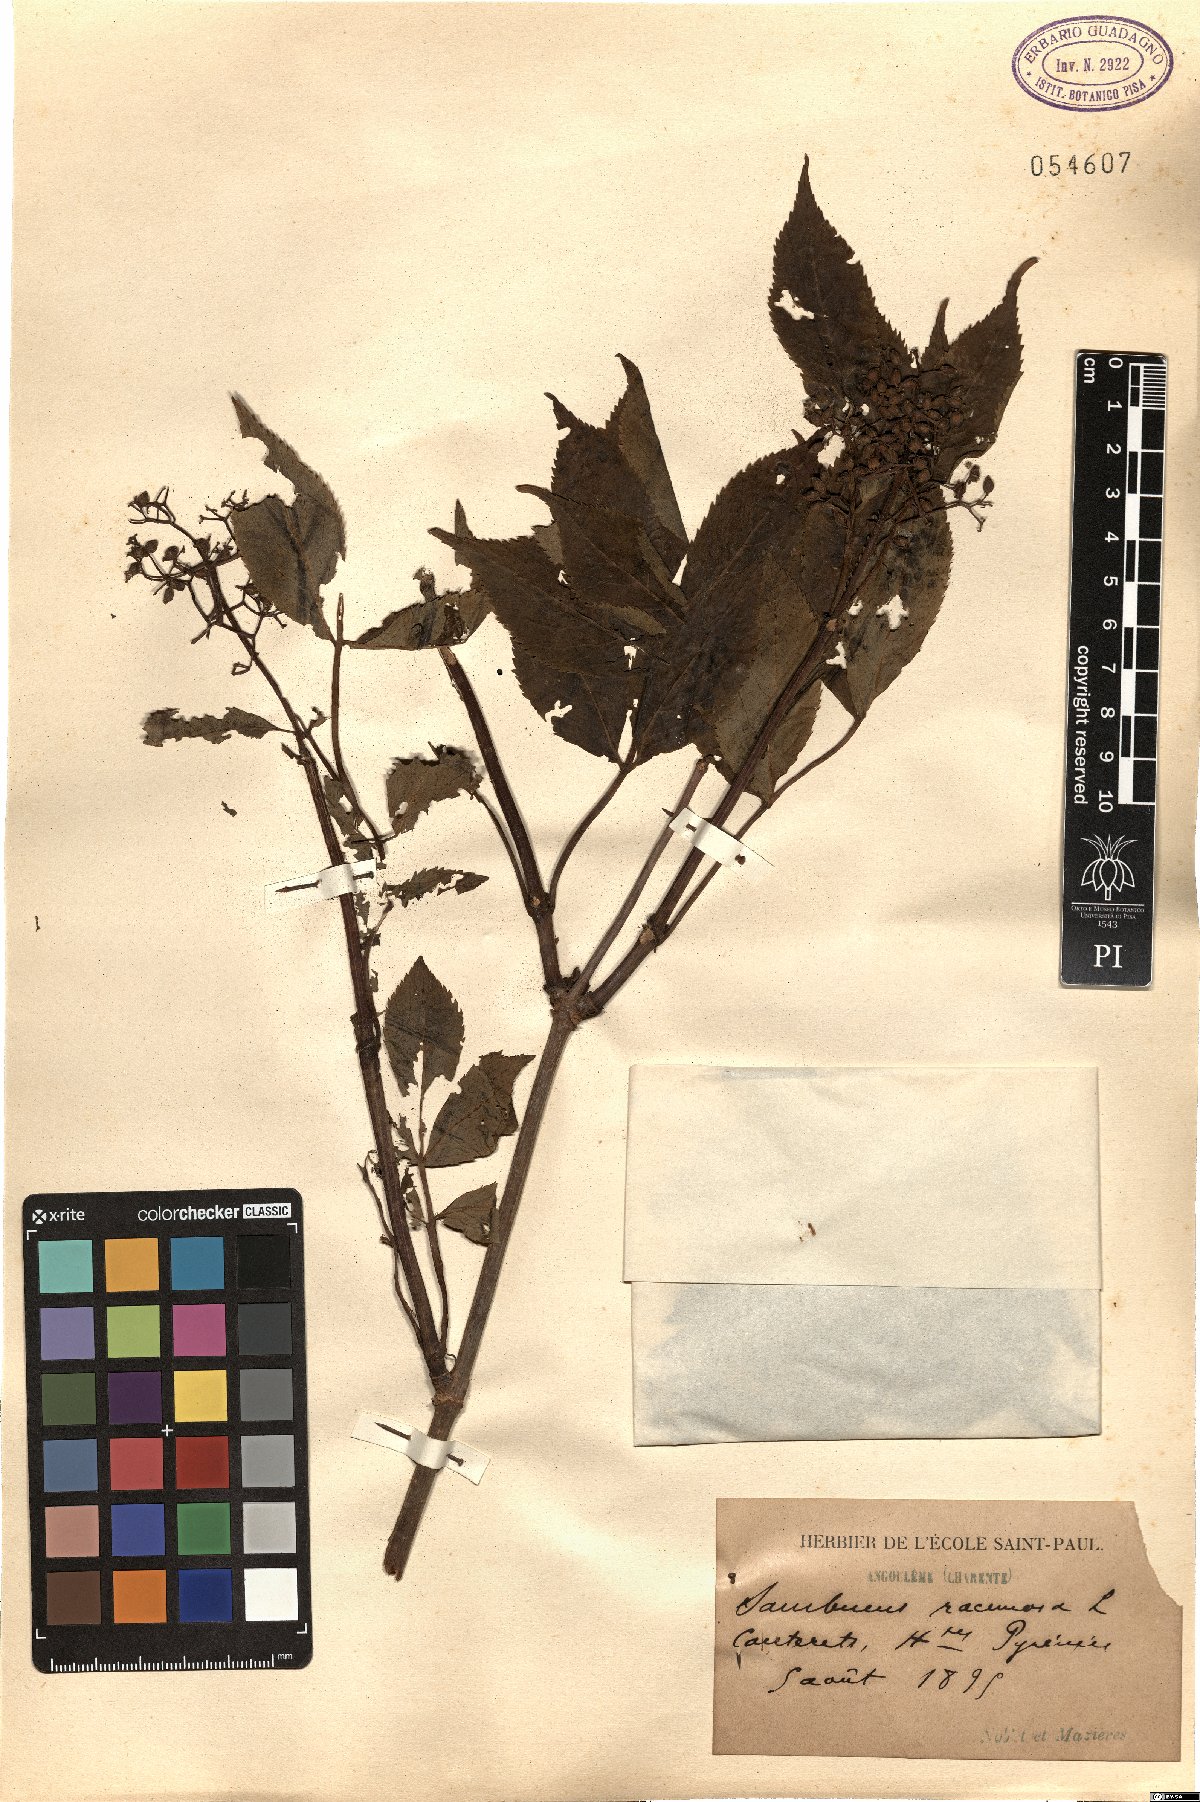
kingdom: Plantae
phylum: Tracheophyta
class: Magnoliopsida
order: Dipsacales
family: Viburnaceae
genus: Sambucus
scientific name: Sambucus racemosa
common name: Red-berried elder
